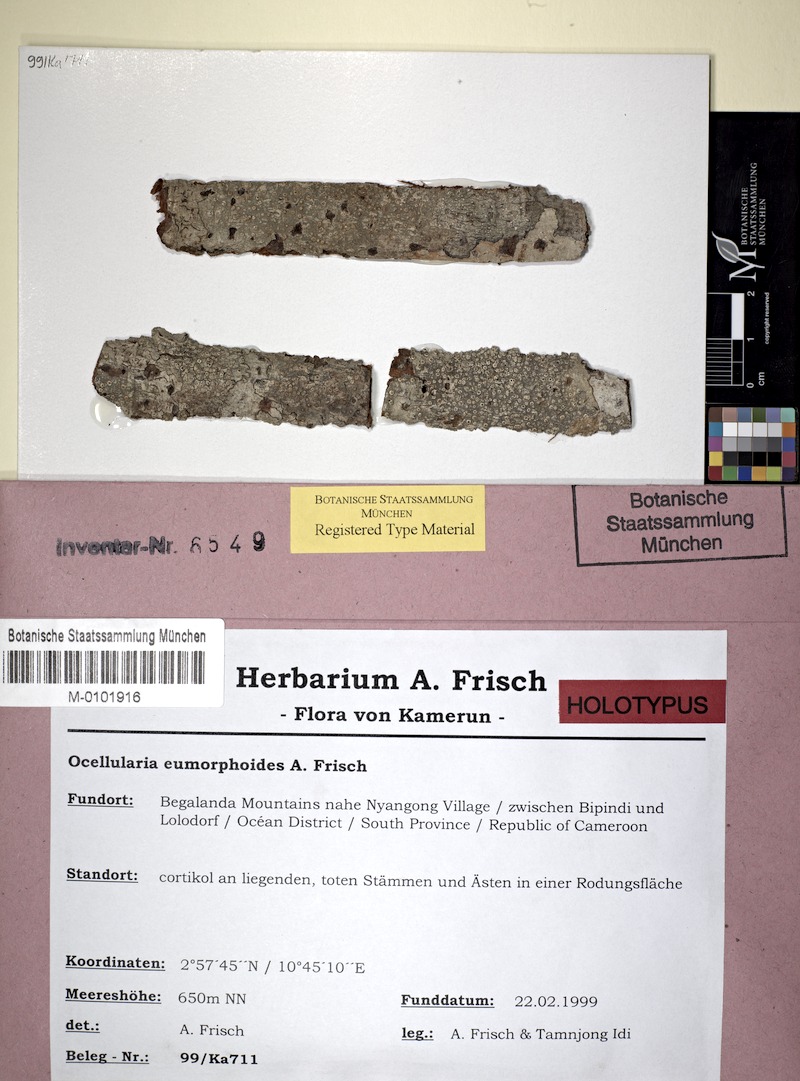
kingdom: Fungi
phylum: Ascomycota
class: Lecanoromycetes
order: Ostropales
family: Graphidaceae
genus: Ocellularia
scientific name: Ocellularia eumorphoides
